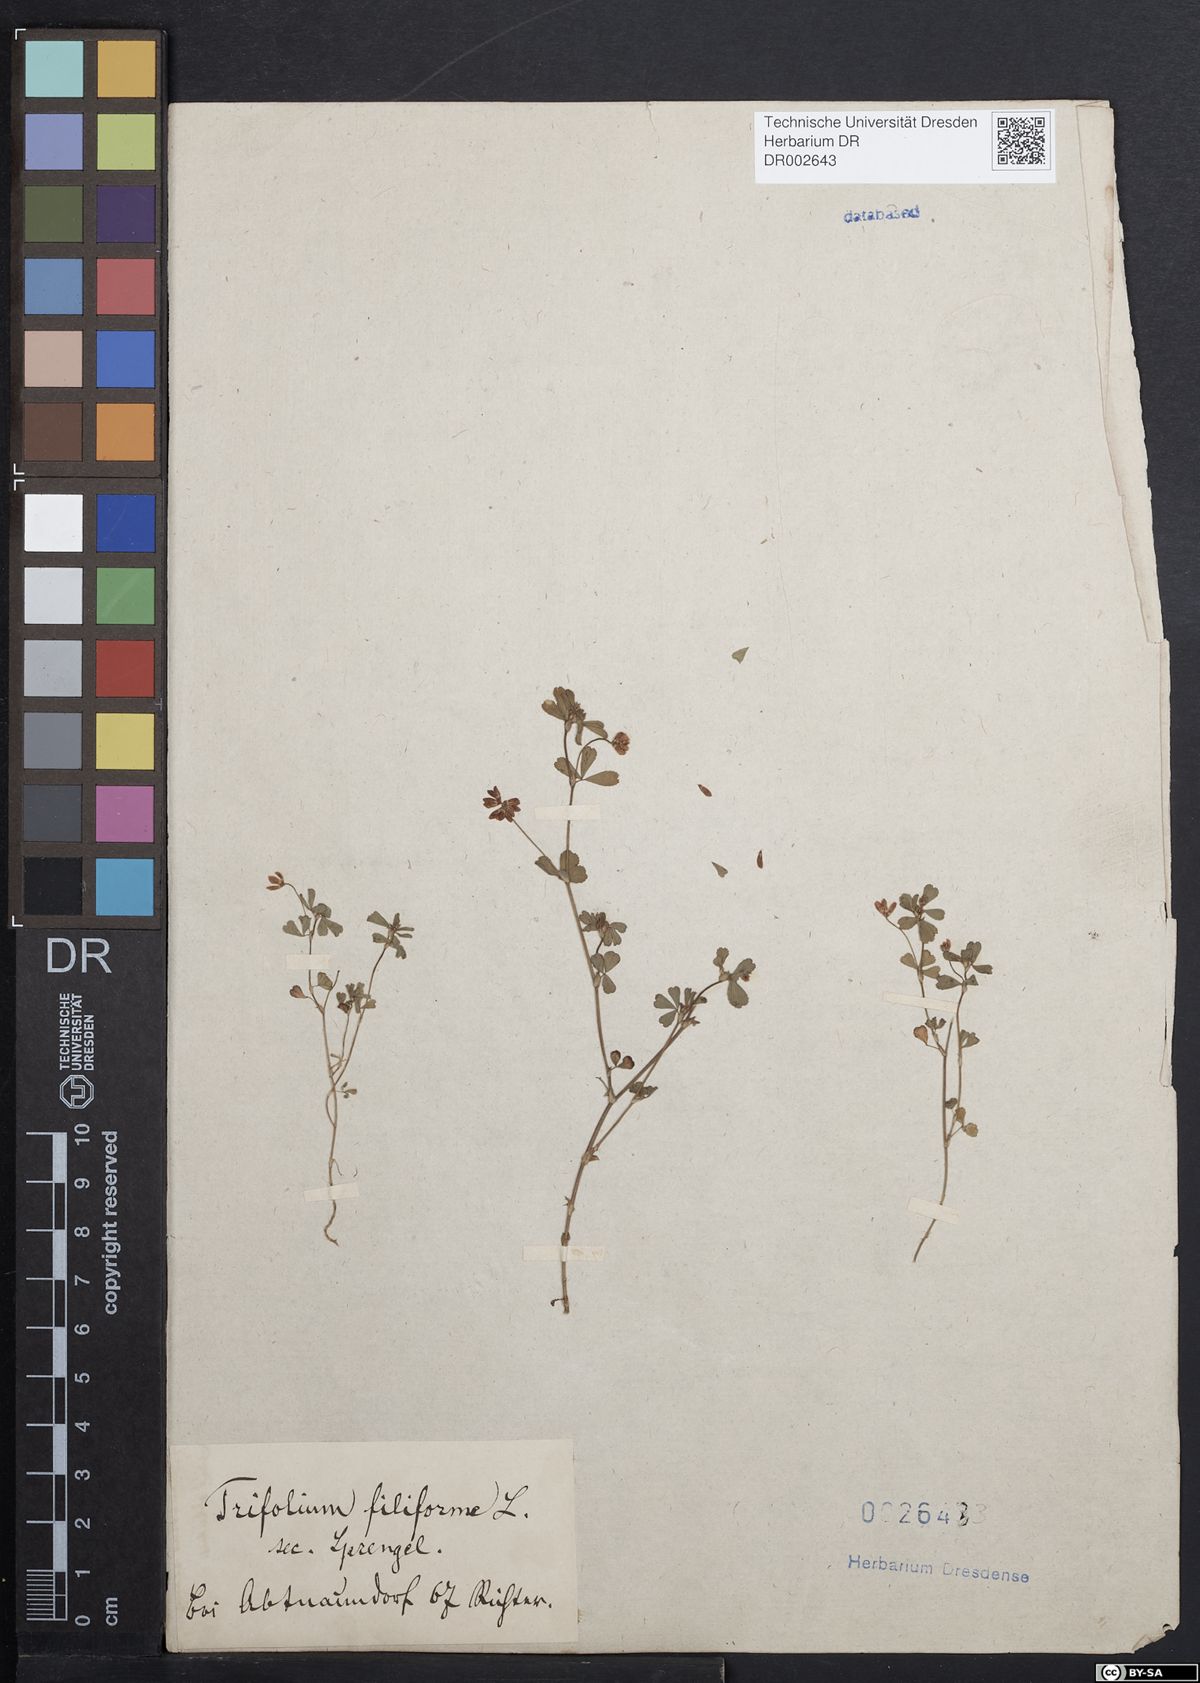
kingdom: Plantae
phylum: Tracheophyta
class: Magnoliopsida
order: Fabales
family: Fabaceae
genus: Trifolium
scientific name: Trifolium dubium
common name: Suckling clover
